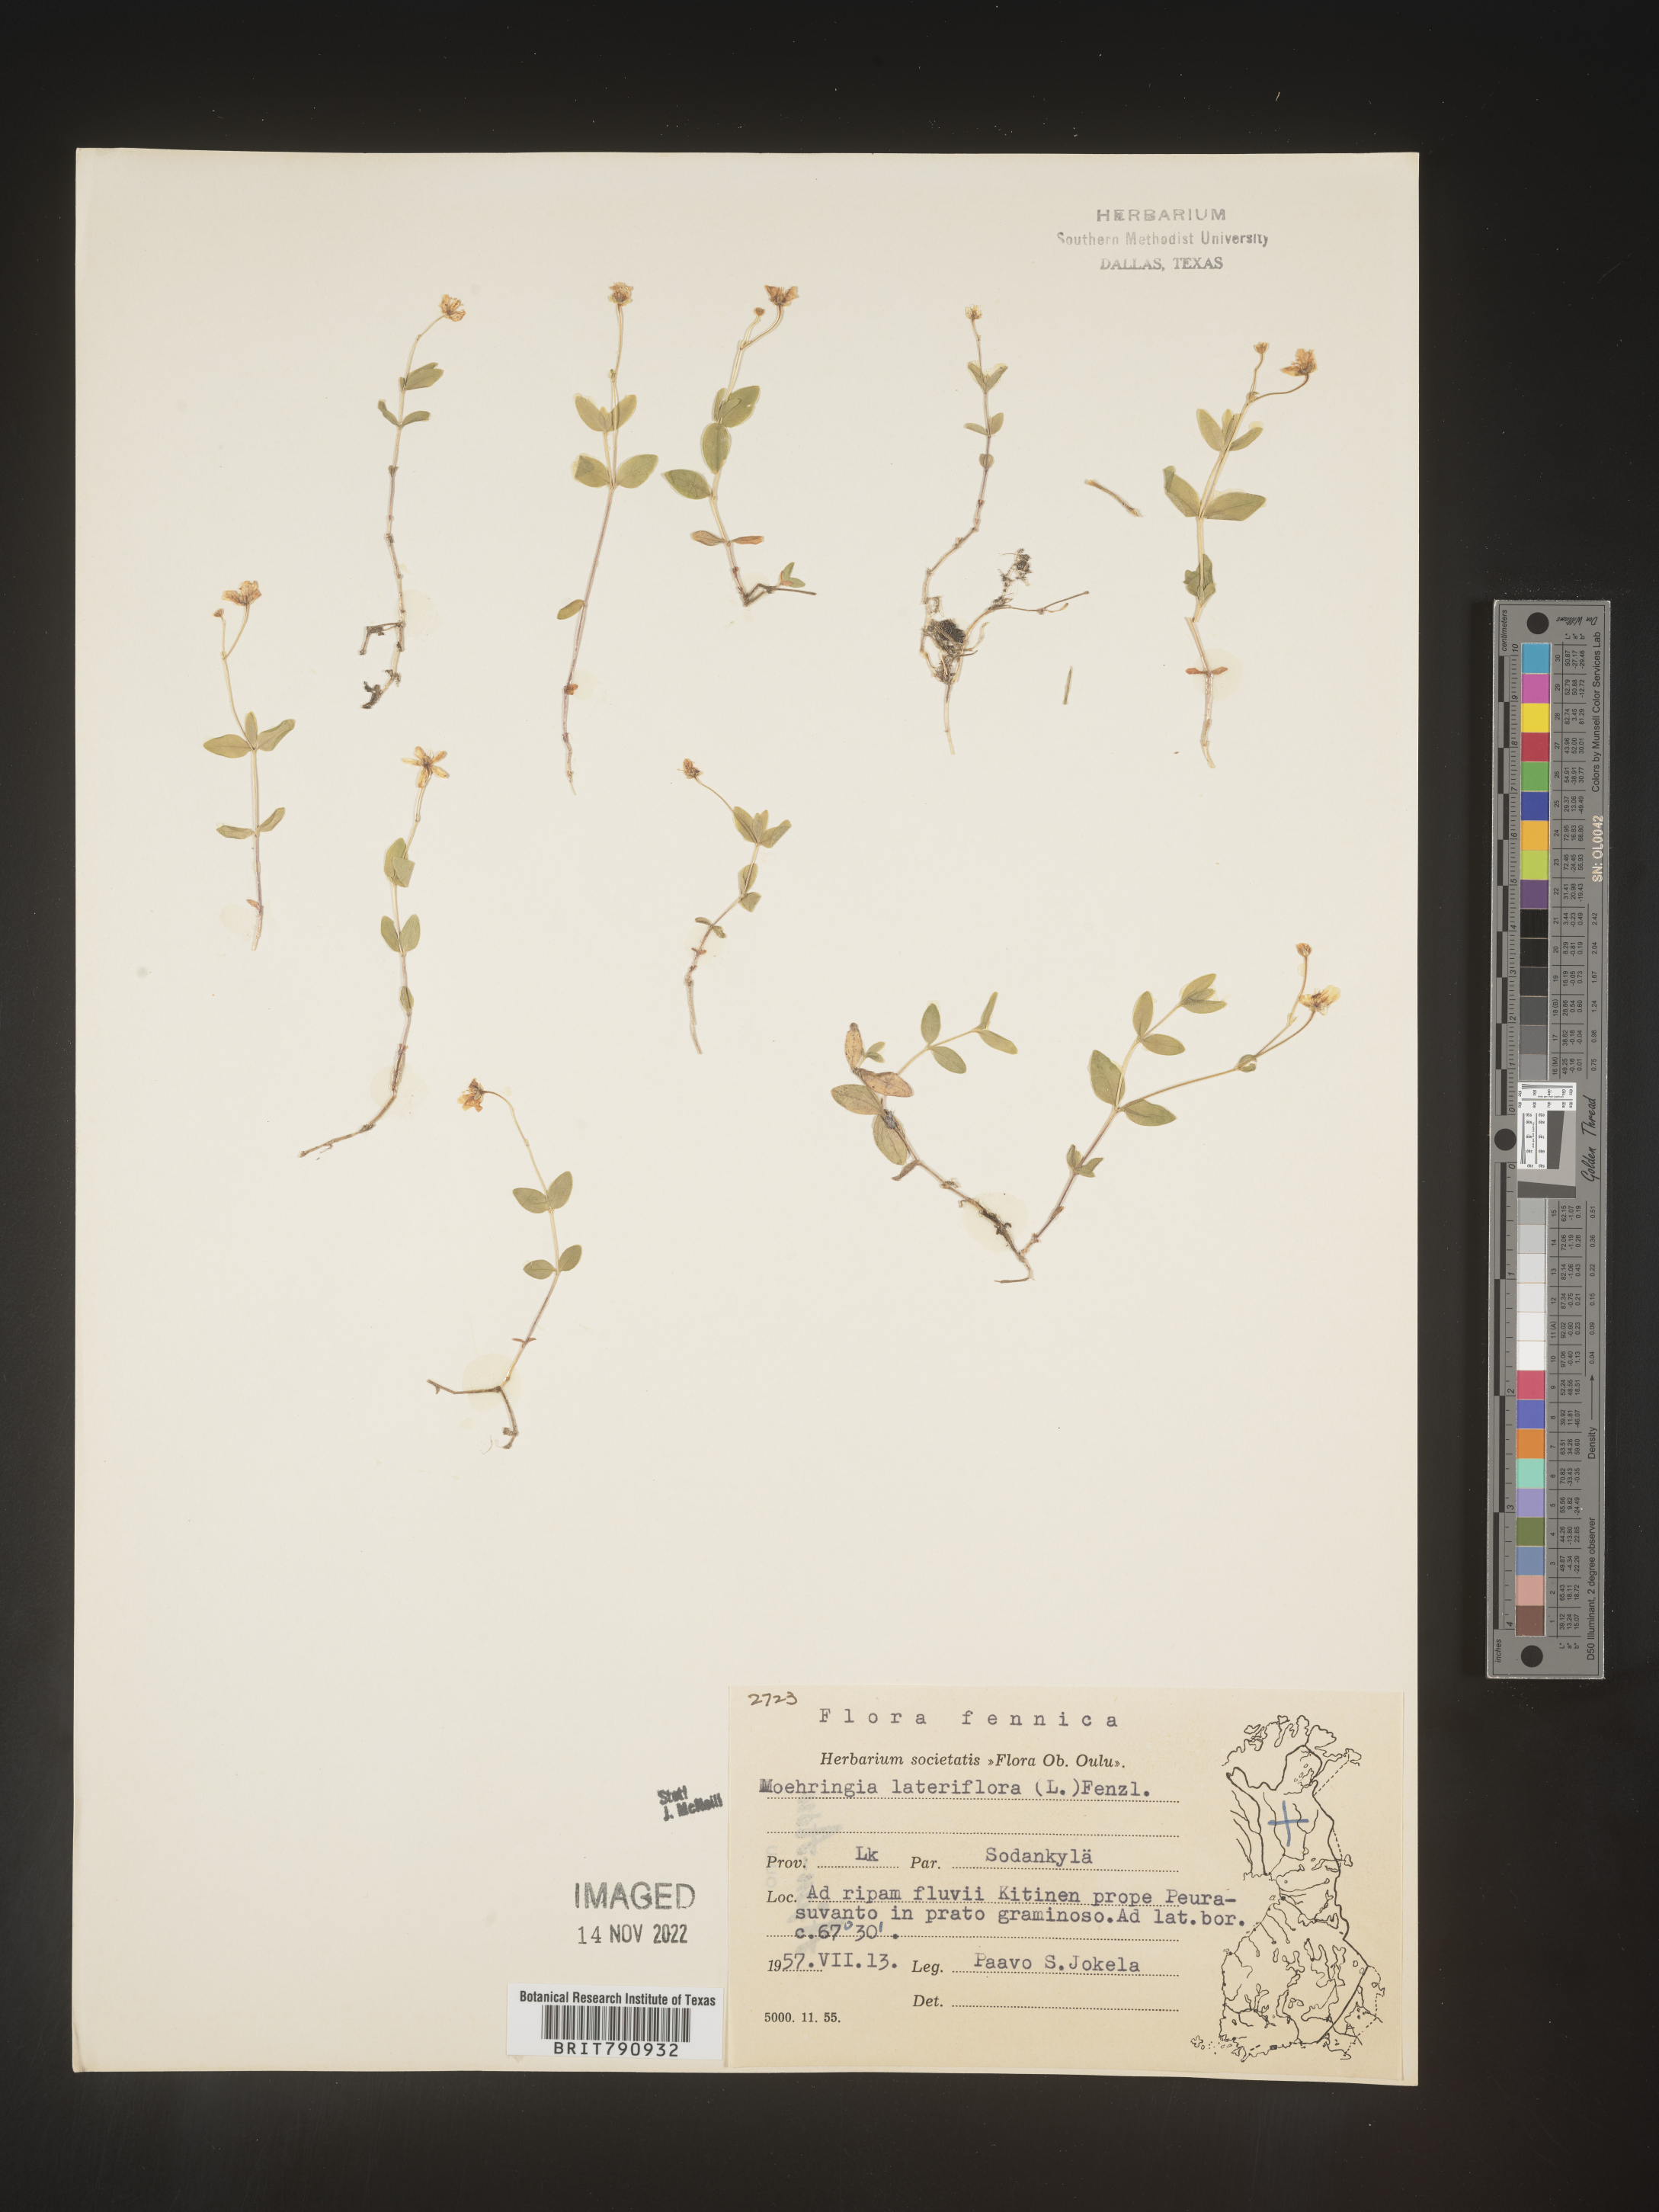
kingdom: Plantae
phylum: Tracheophyta
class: Magnoliopsida
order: Caryophyllales
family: Caryophyllaceae
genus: Moehringia
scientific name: Moehringia
